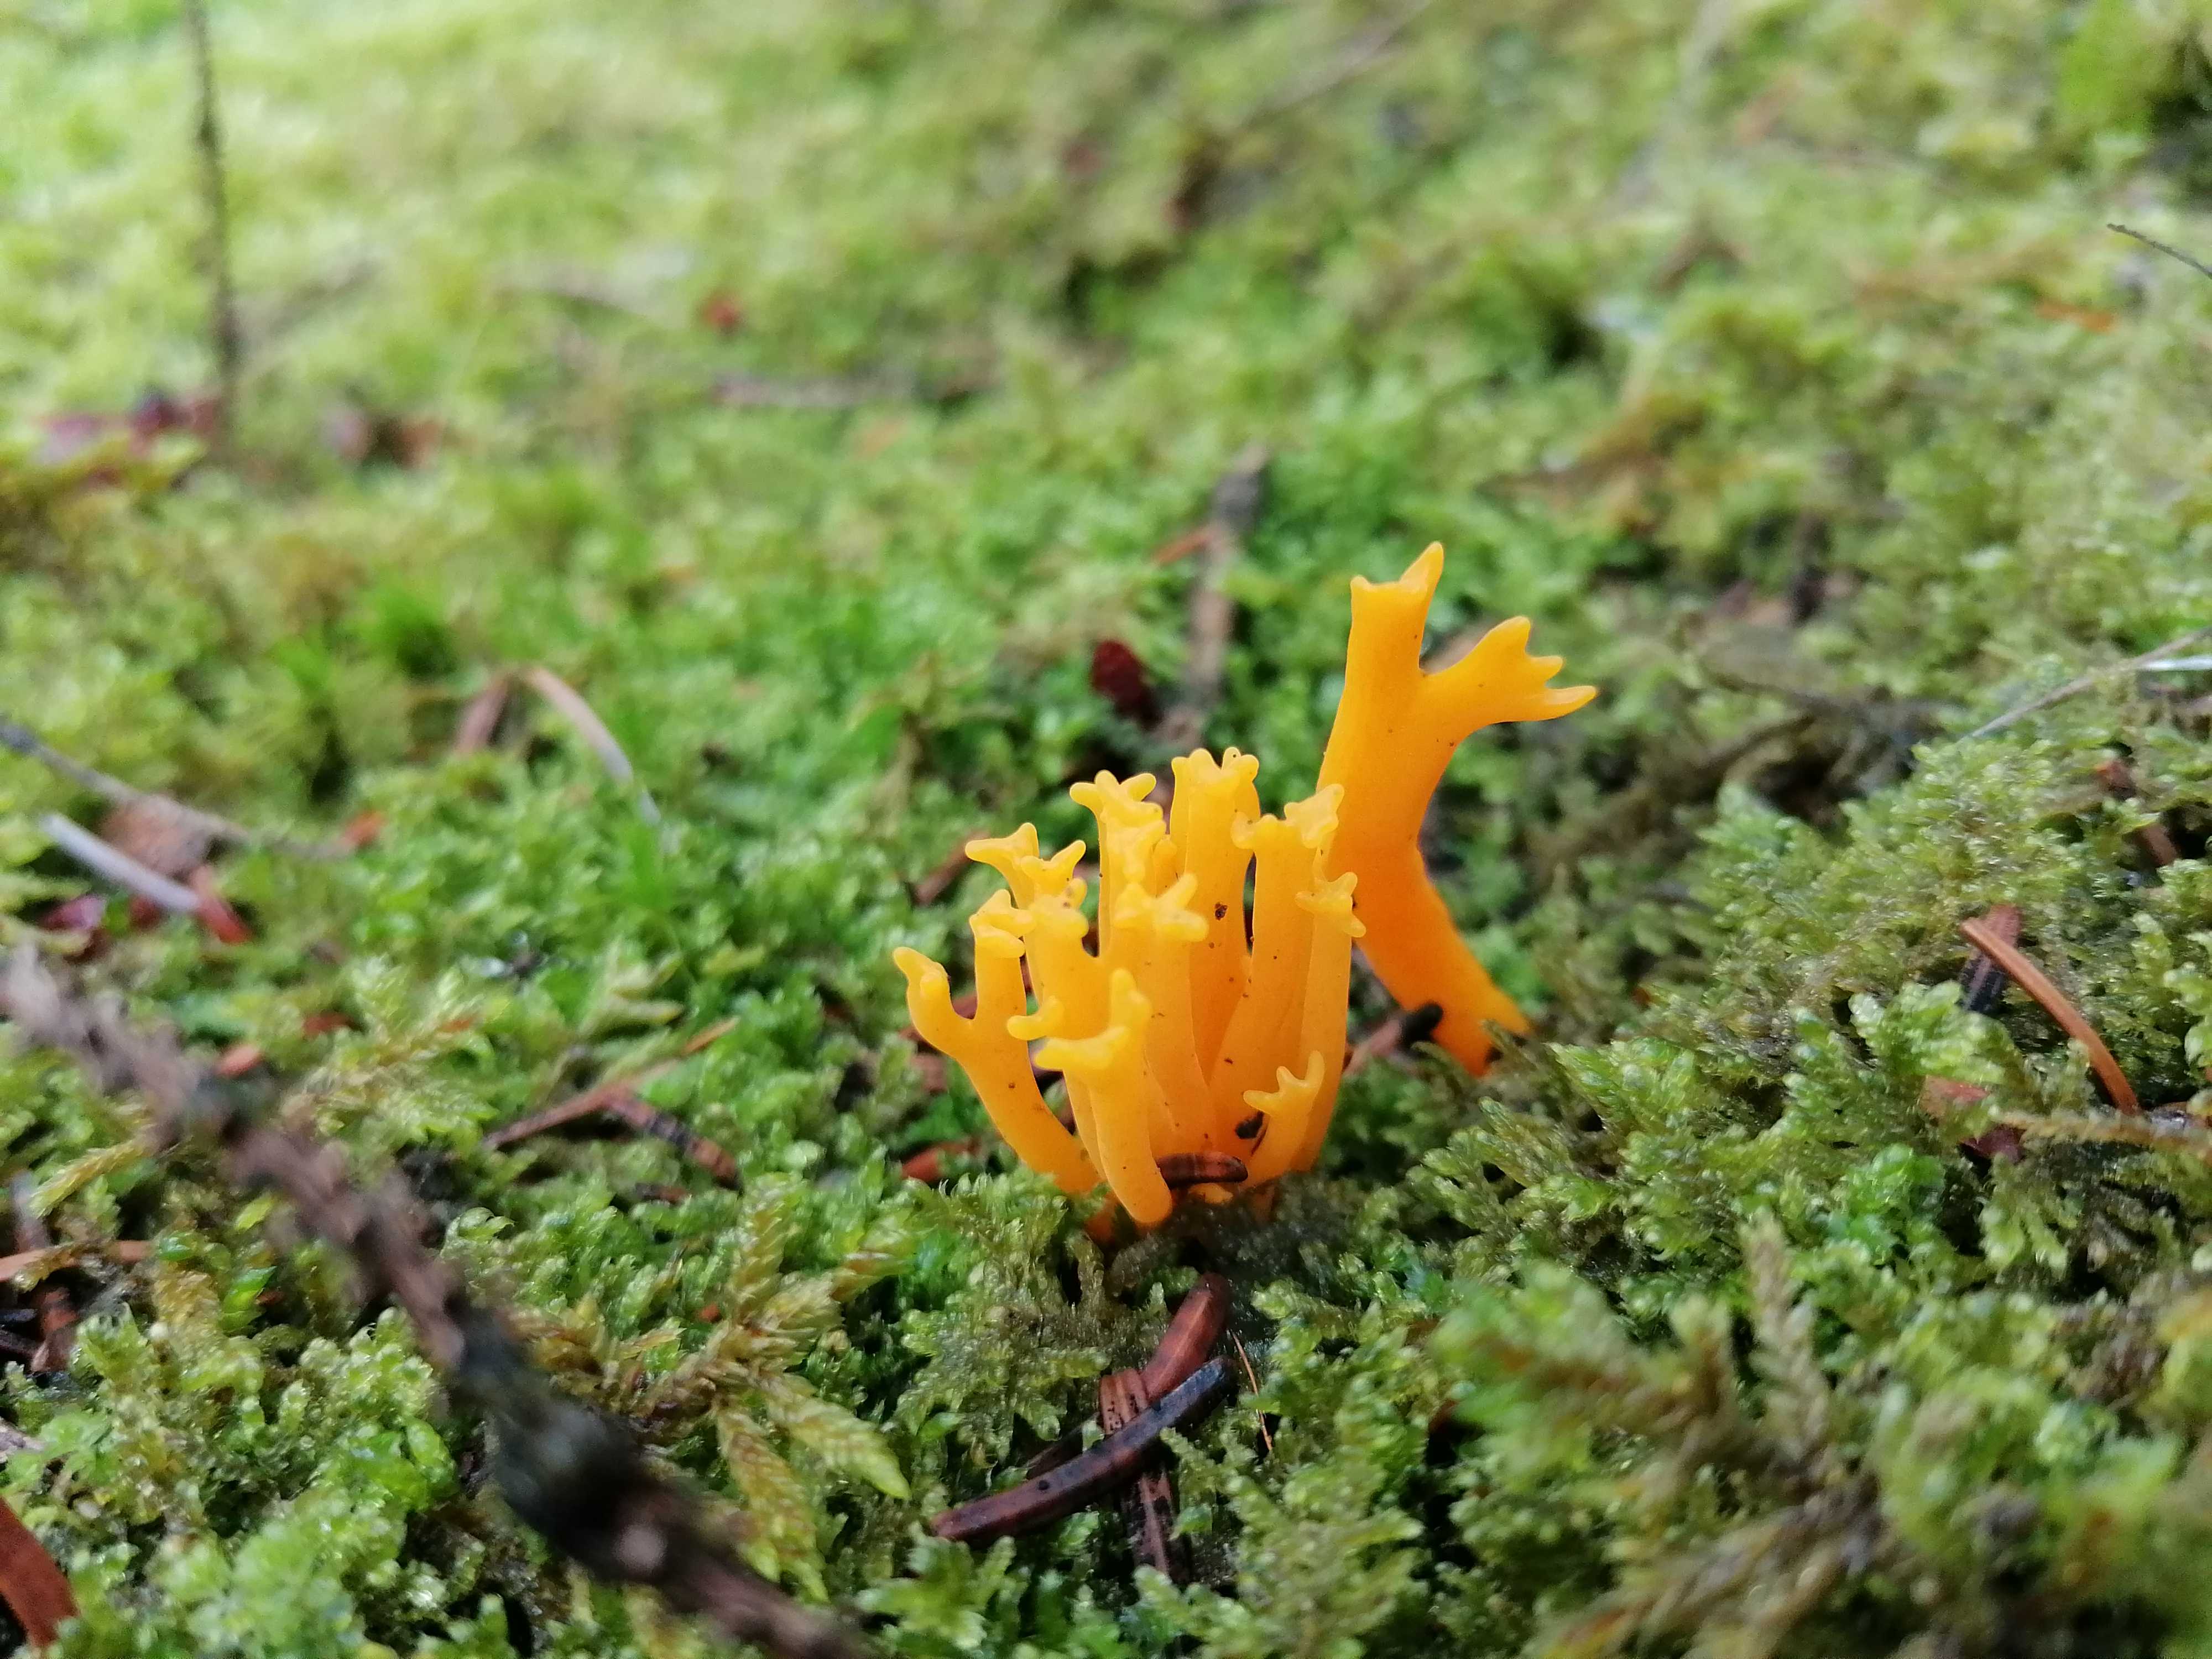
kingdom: Fungi
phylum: Basidiomycota
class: Dacrymycetes
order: Dacrymycetales
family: Dacrymycetaceae
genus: Calocera
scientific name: Calocera viscosa
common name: almindelig guldgaffel
